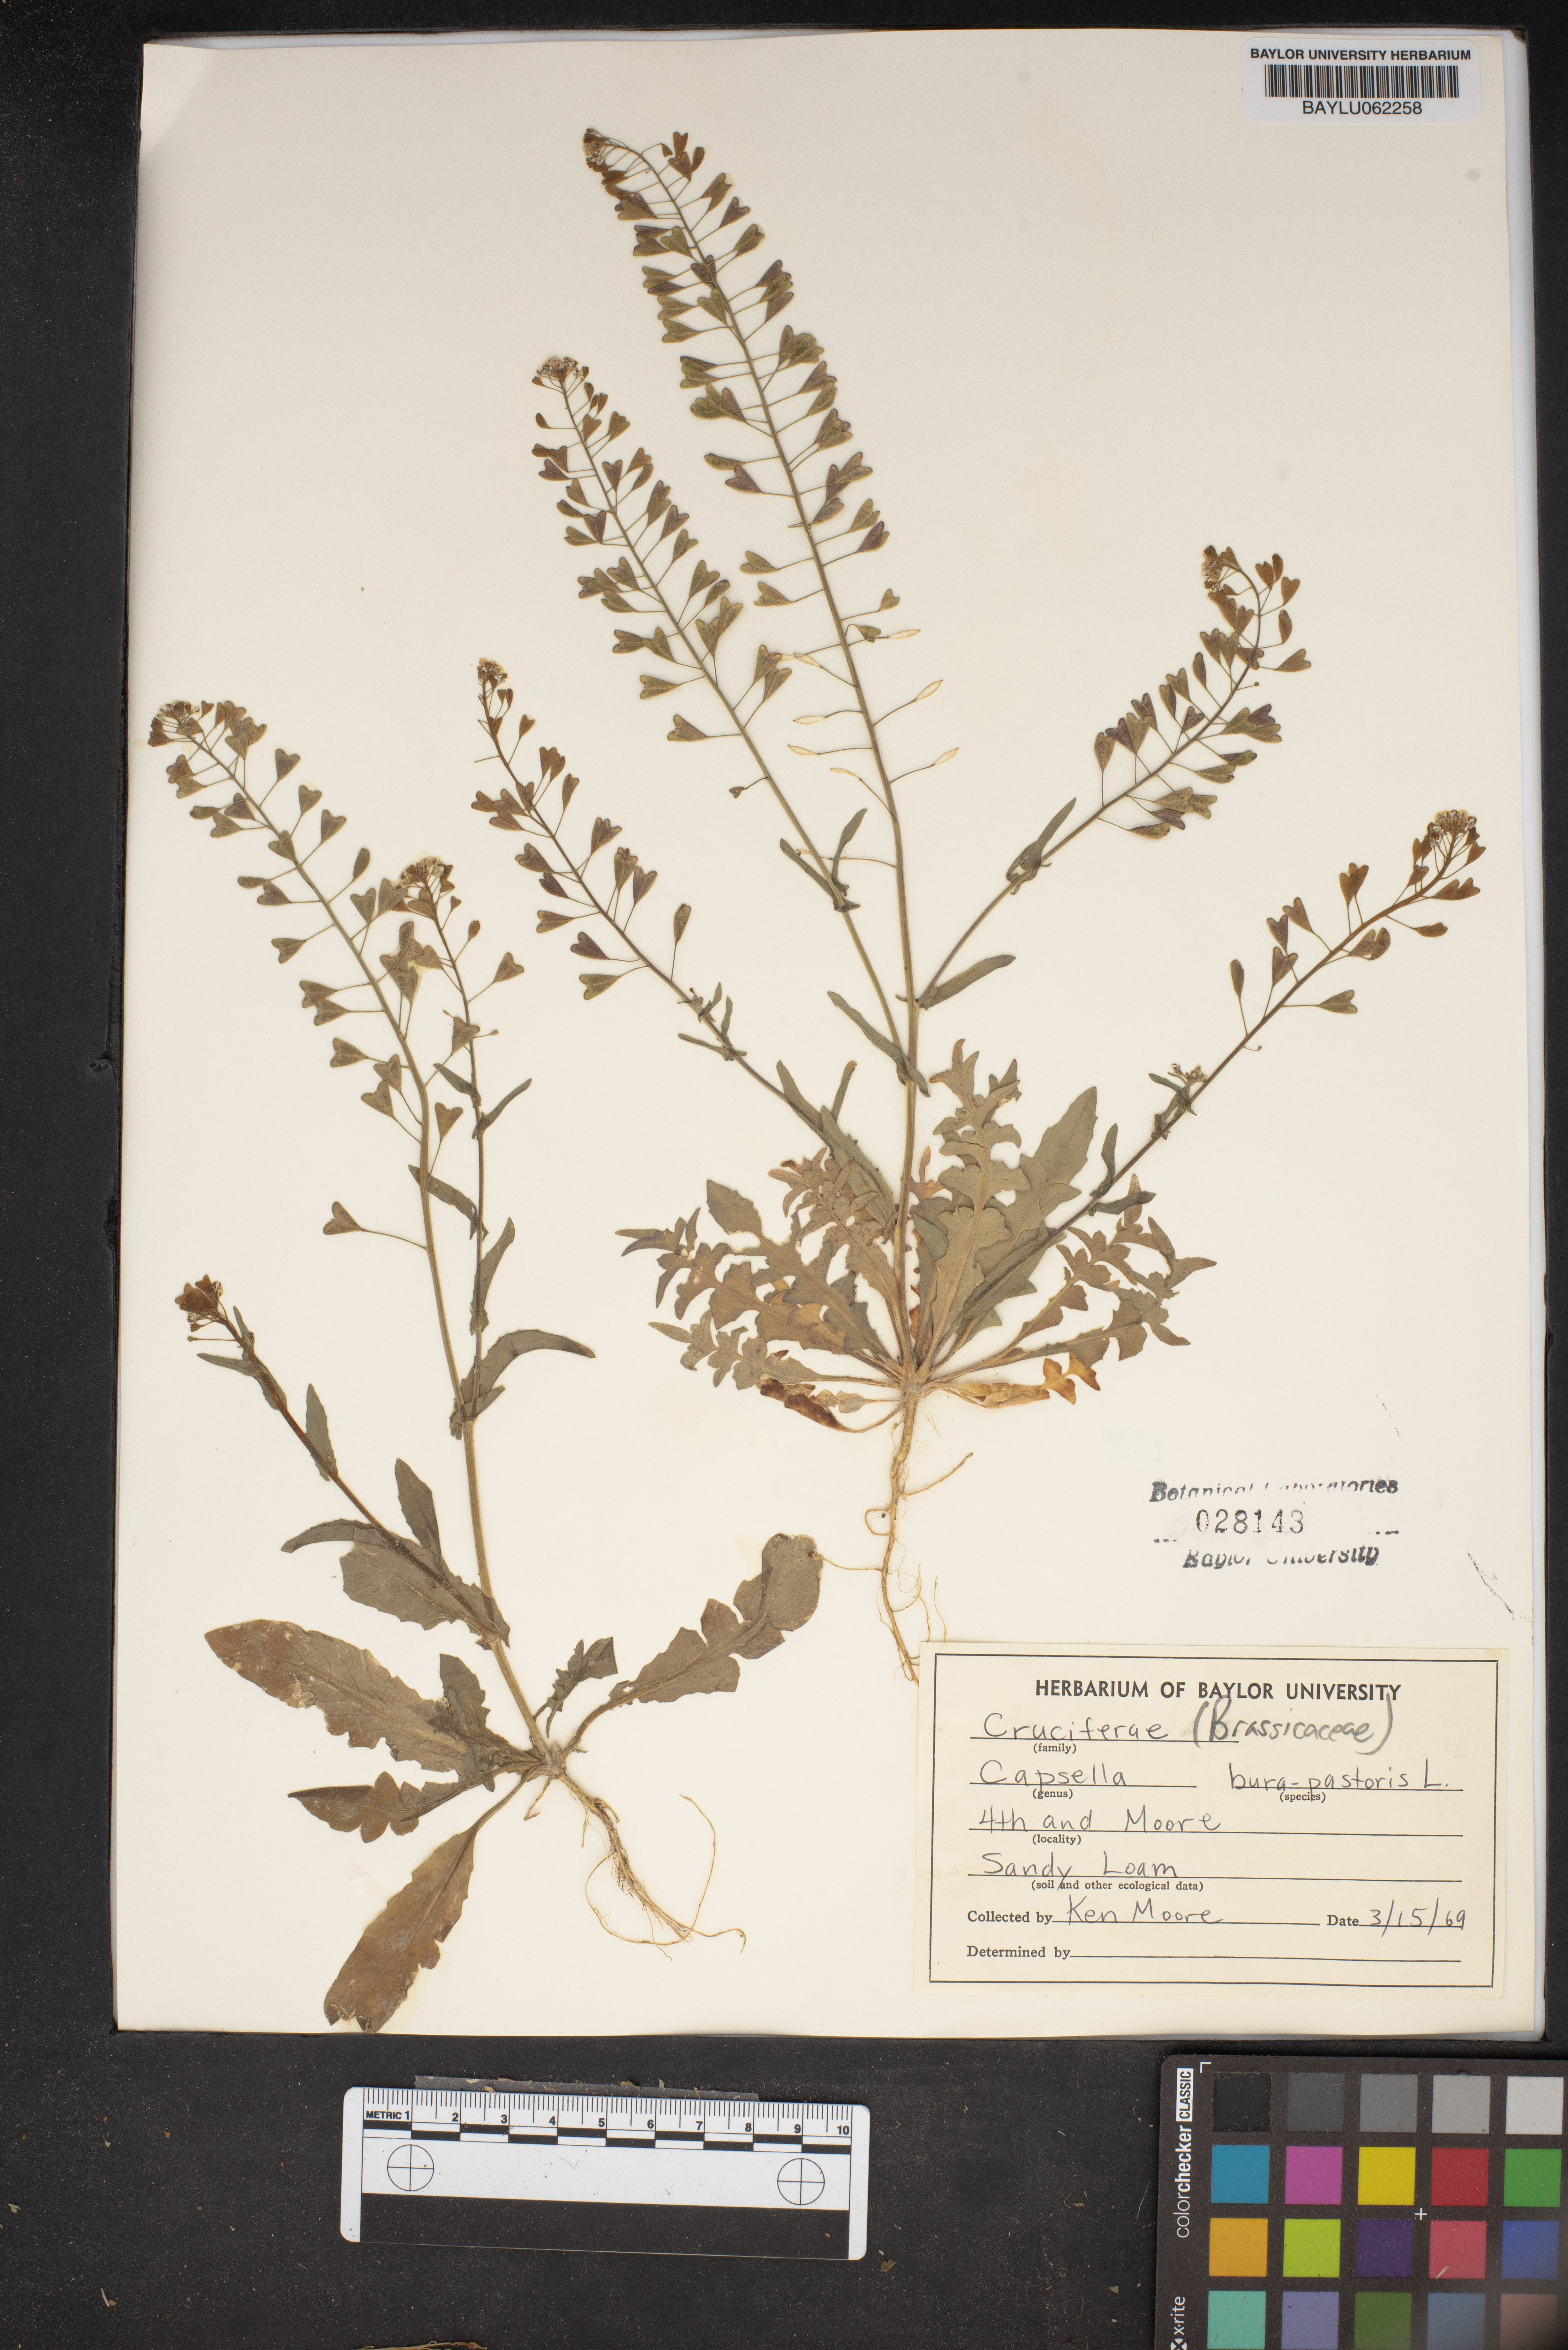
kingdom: Plantae
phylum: Tracheophyta
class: Magnoliopsida
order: Brassicales
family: Brassicaceae
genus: Capsella
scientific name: Capsella bursa-pastoris
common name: Shepherd's purse
